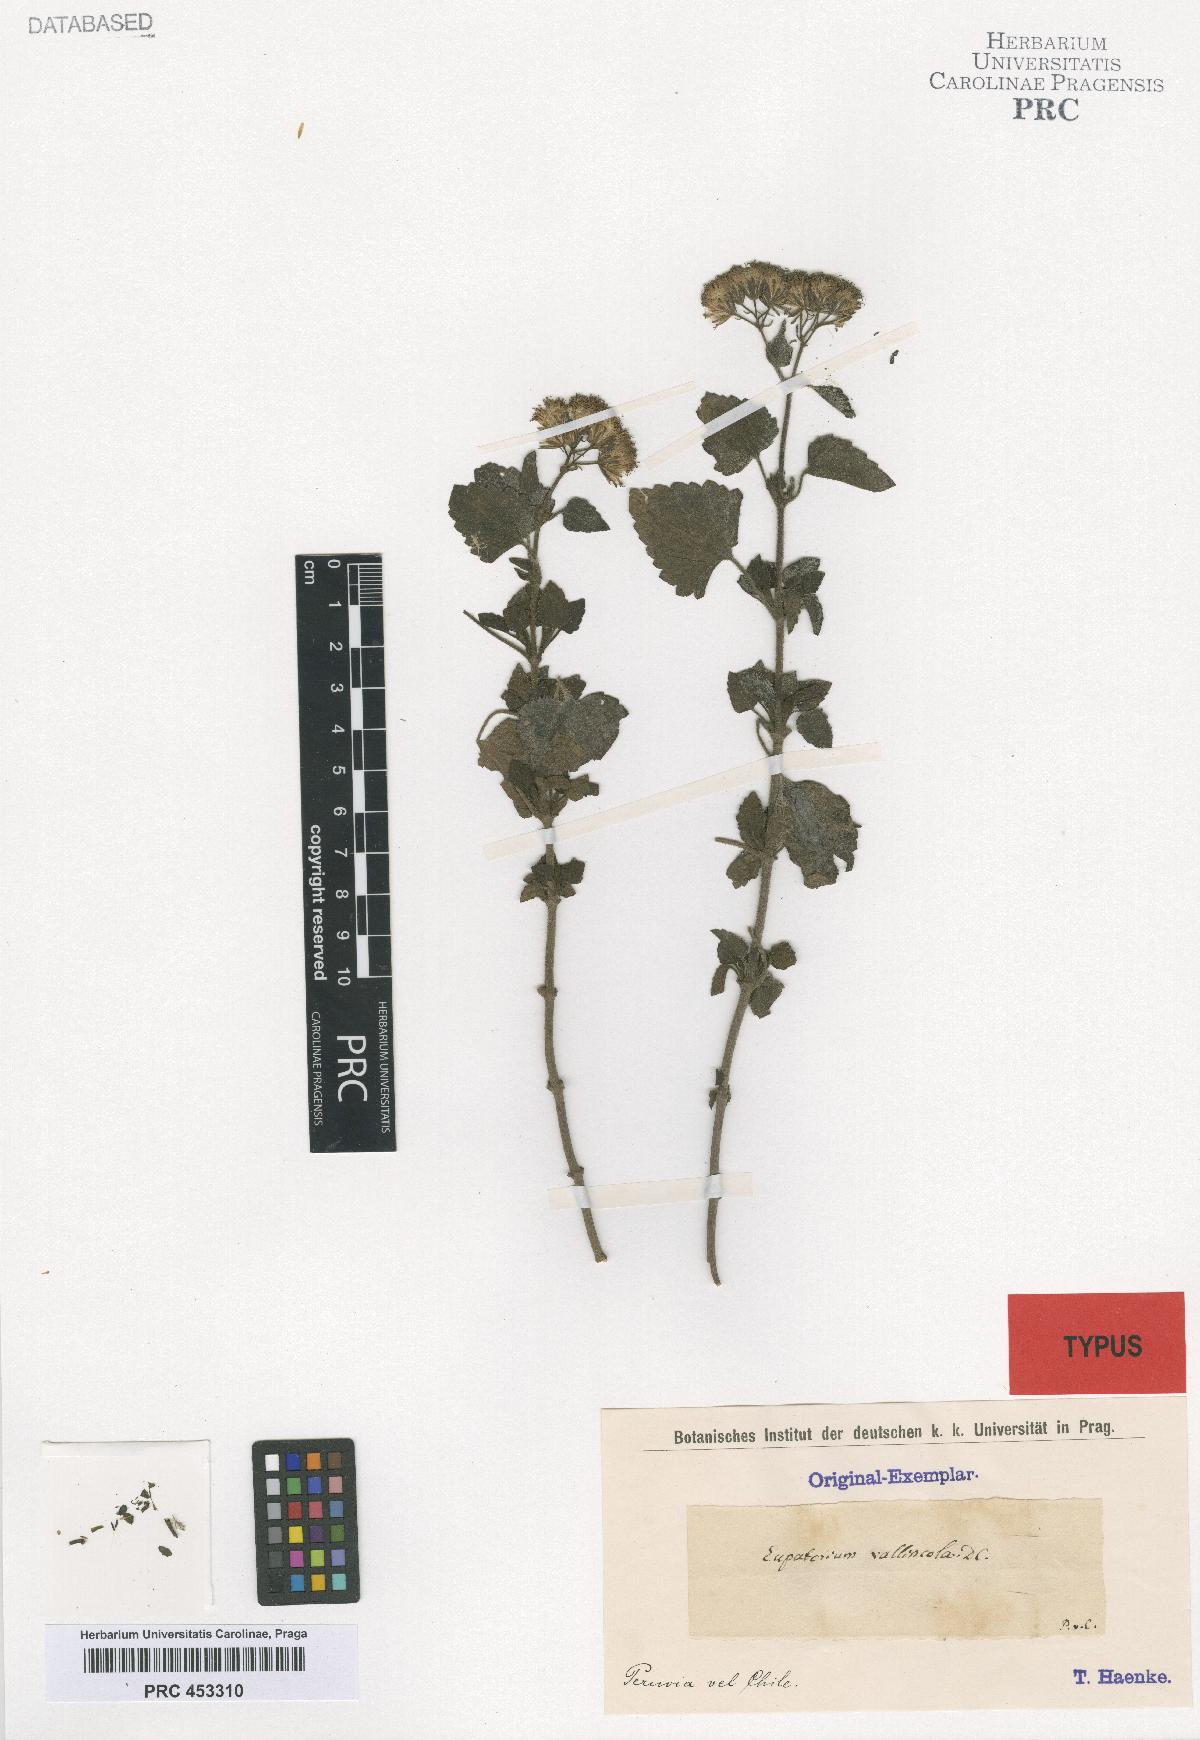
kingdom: Plantae
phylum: Tracheophyta
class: Magnoliopsida
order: Asterales
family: Asteraceae
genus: Ageratina
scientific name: Ageratina vallincola
